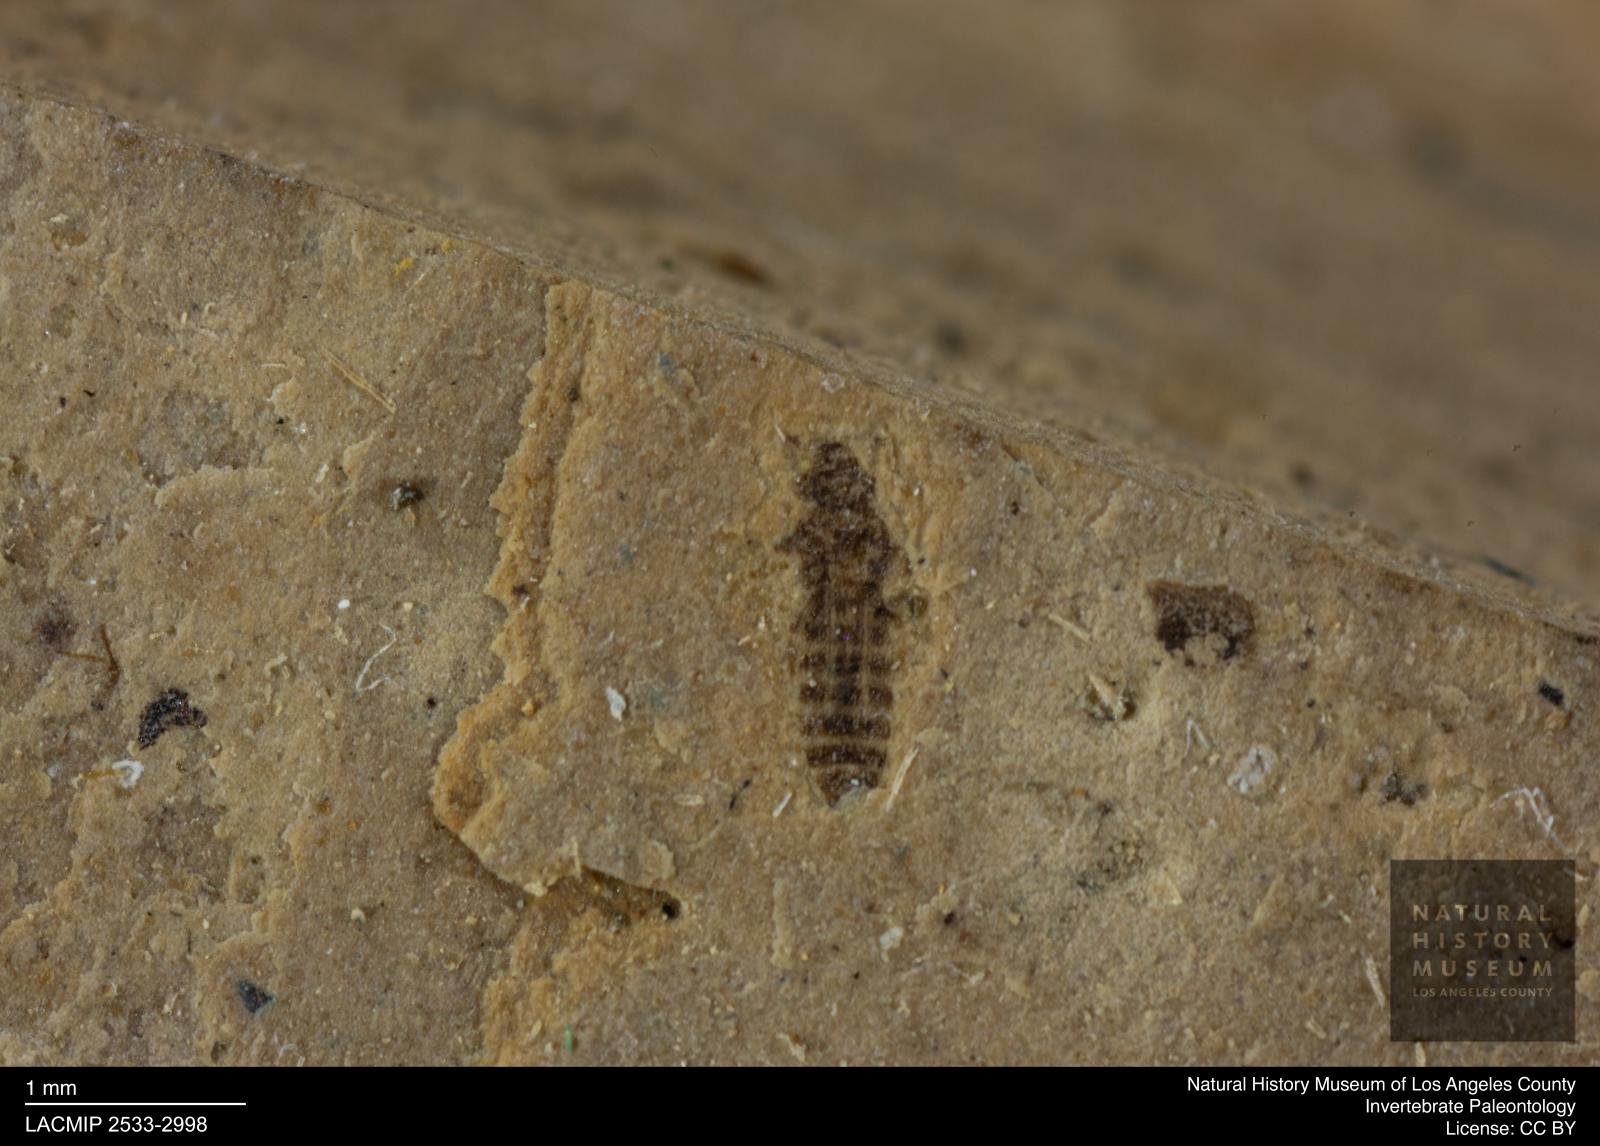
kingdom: Animalia
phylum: Arthropoda
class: Insecta
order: Thysanoptera
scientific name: Thysanoptera
